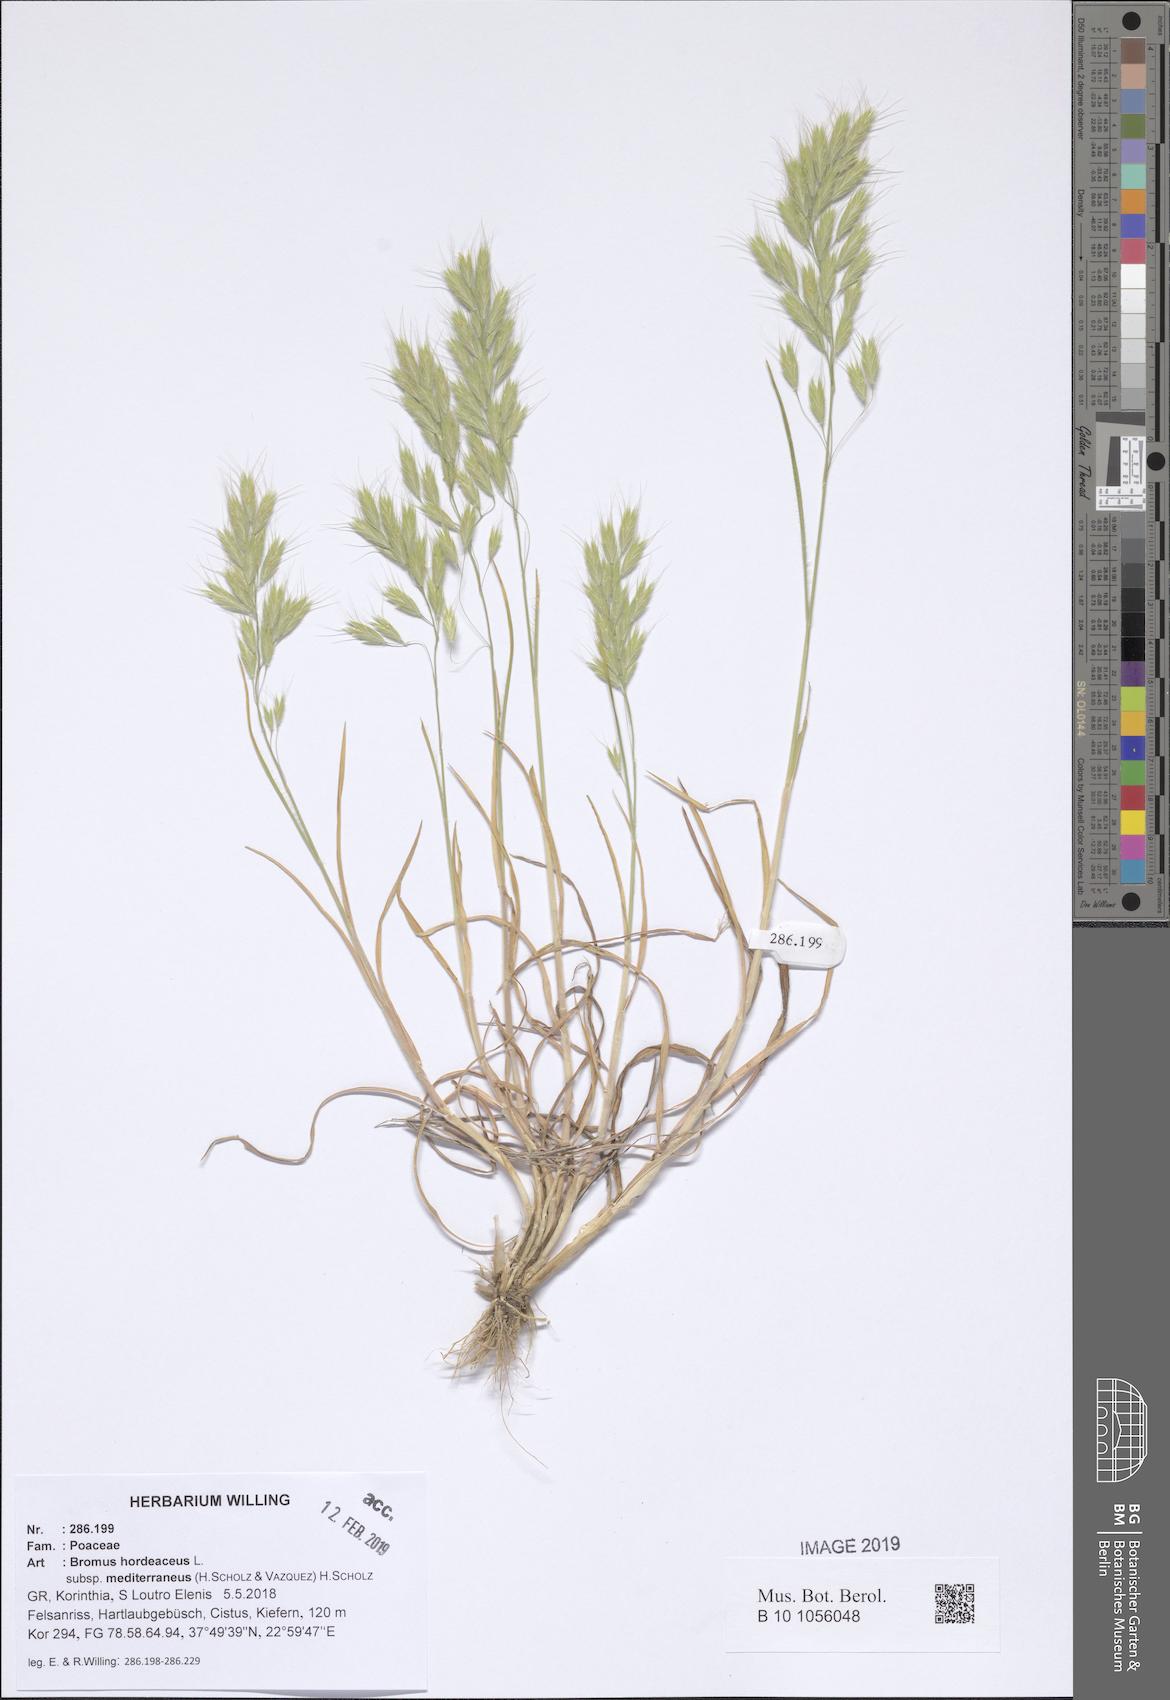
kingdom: Plantae
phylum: Tracheophyta
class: Liliopsida
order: Poales
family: Poaceae
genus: Bromus
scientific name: Bromus hordeaceus
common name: Soft brome
